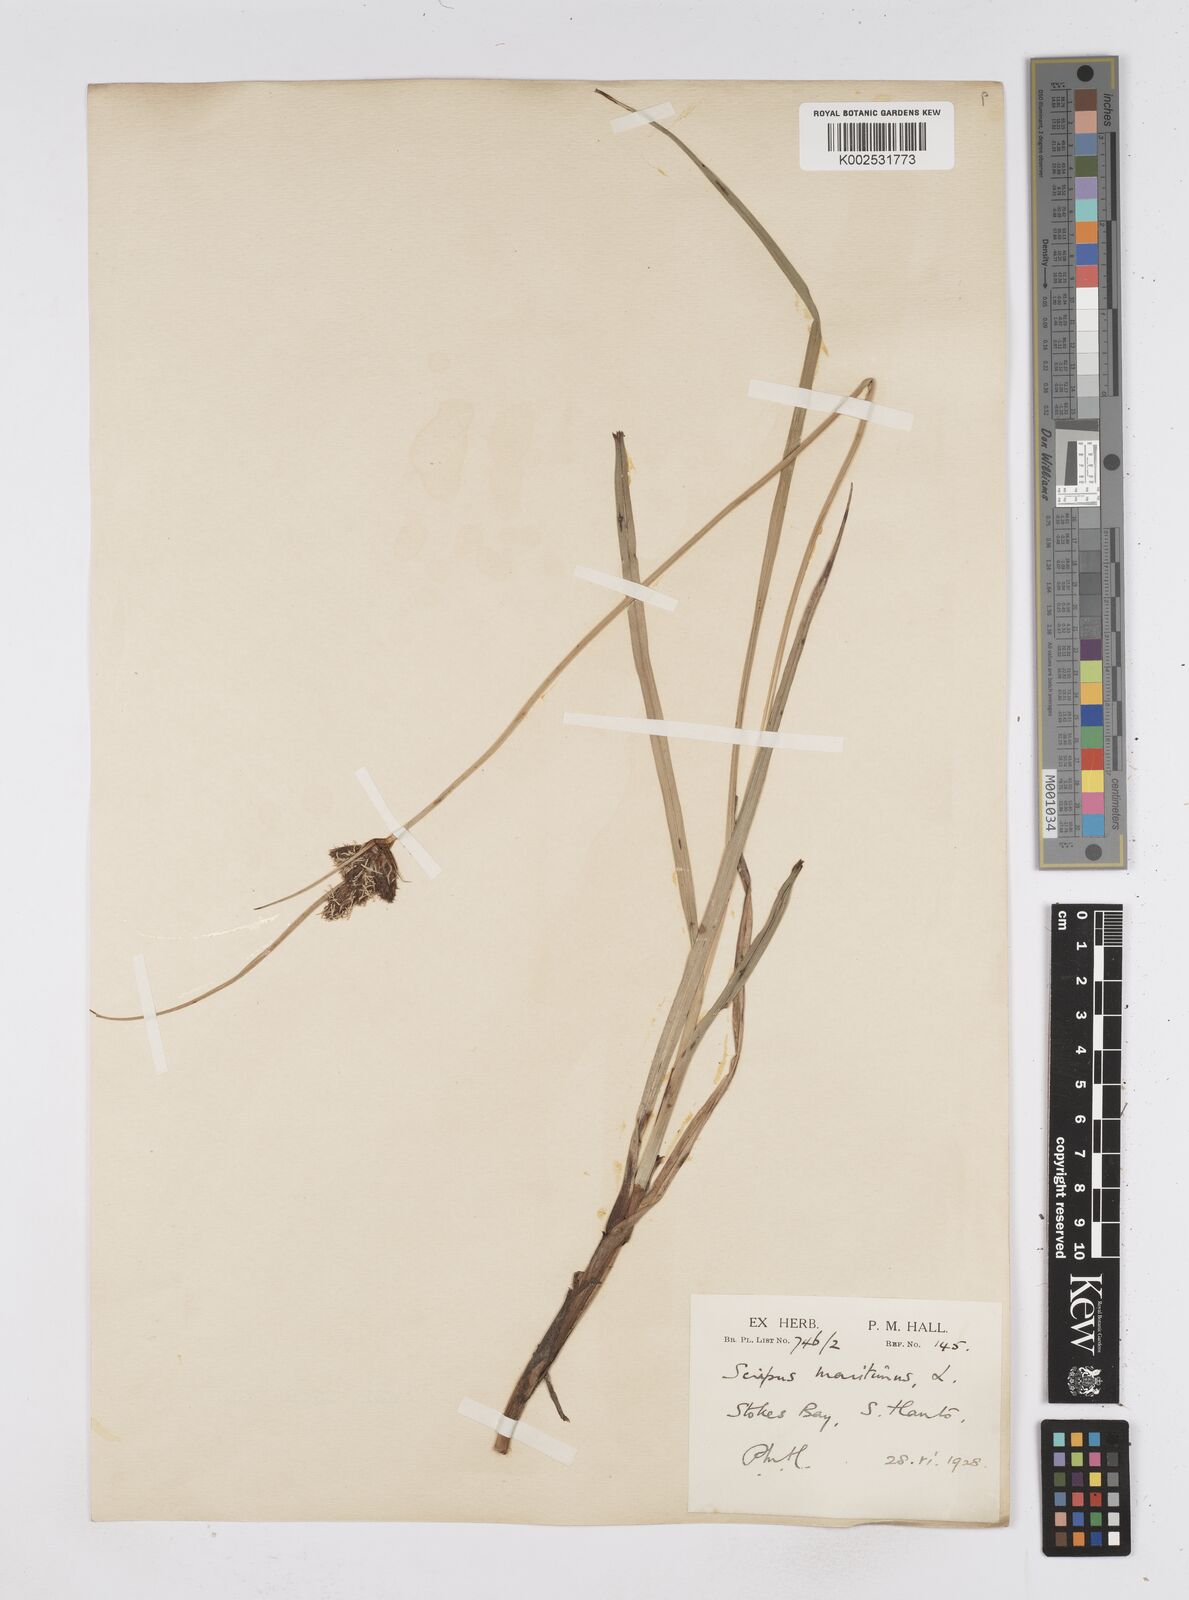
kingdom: Plantae
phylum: Tracheophyta
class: Liliopsida
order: Poales
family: Cyperaceae
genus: Bolboschoenus
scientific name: Bolboschoenus maritimus
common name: Sea club-rush
